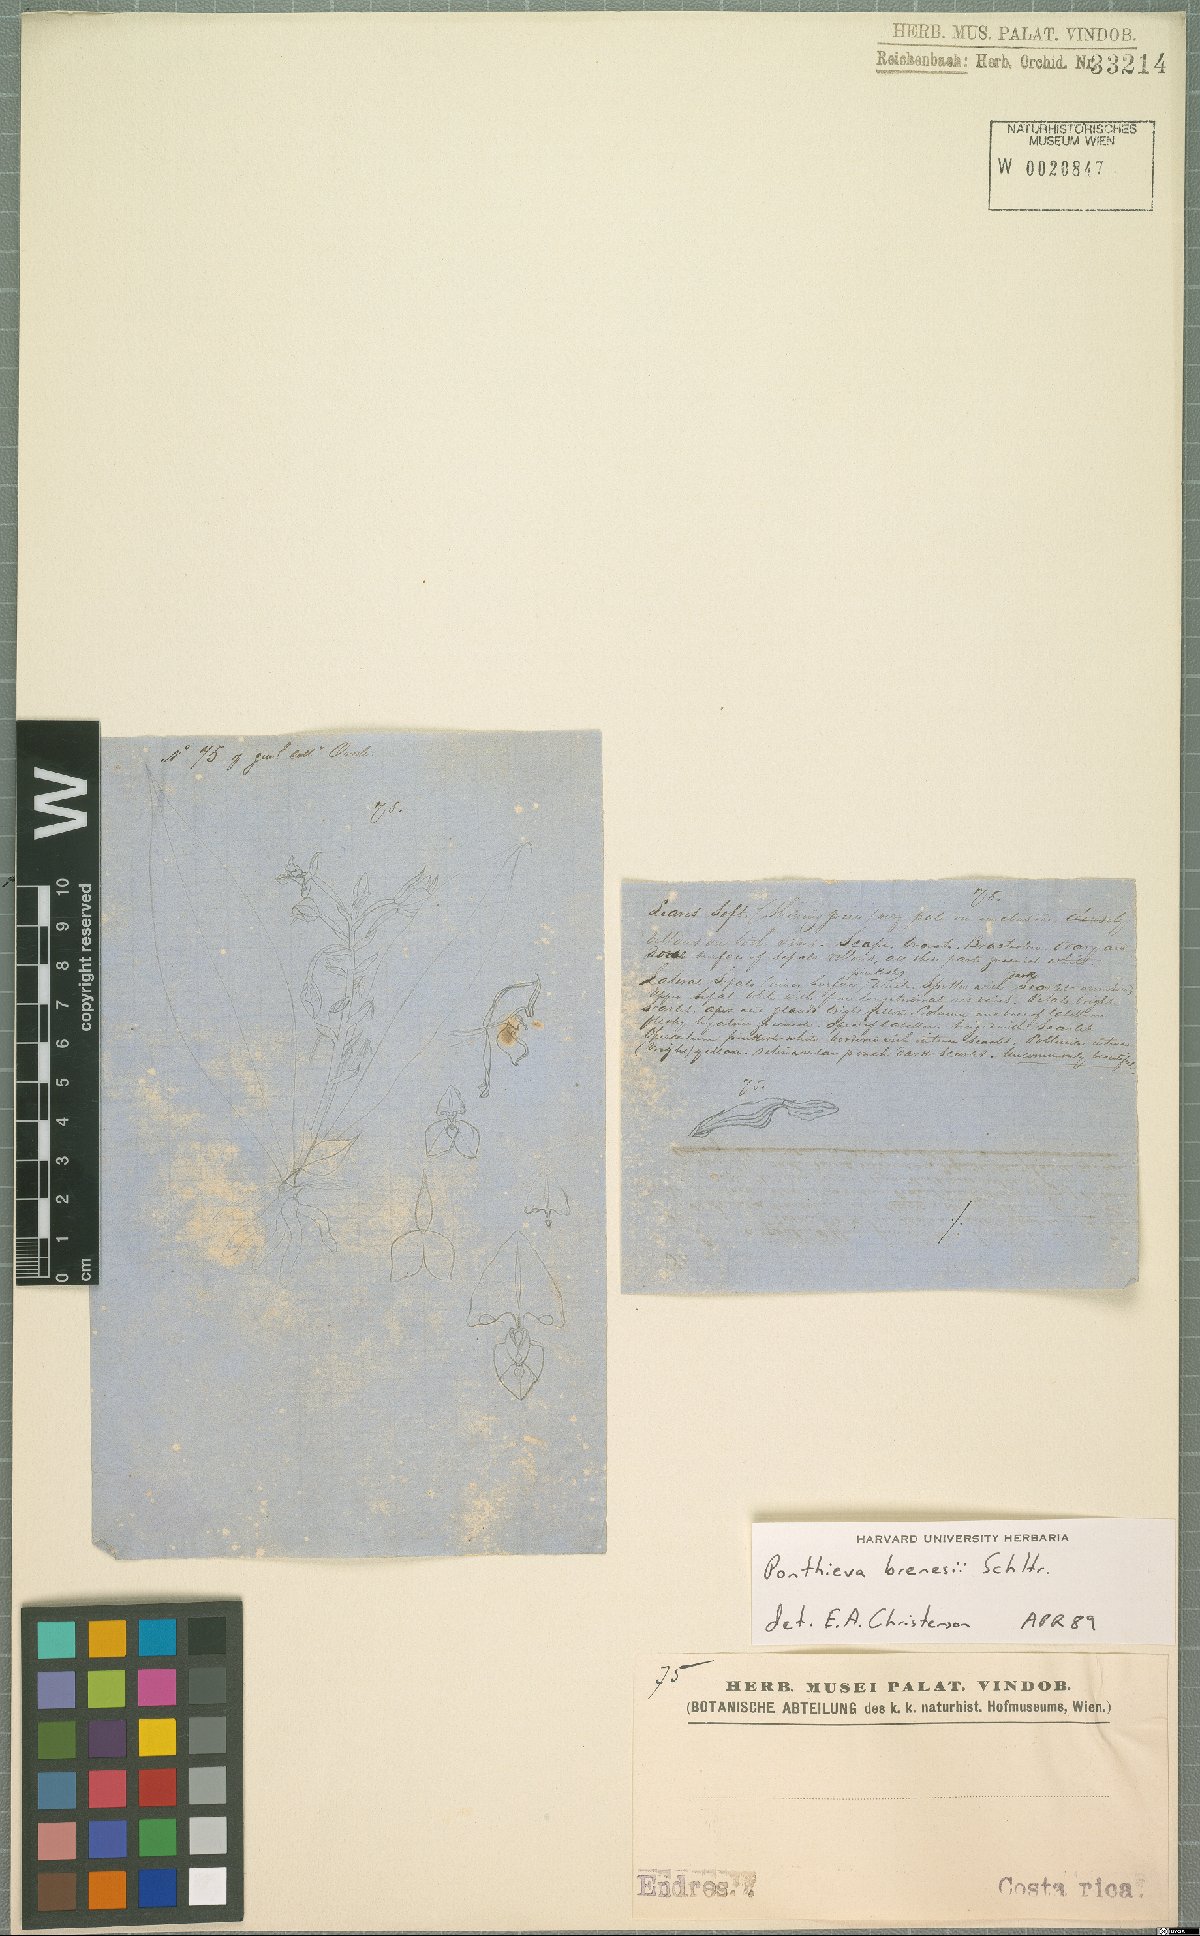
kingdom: Plantae
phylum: Tracheophyta
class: Liliopsida
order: Asparagales
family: Orchidaceae
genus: Ponthieva
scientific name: Ponthieva villosa
